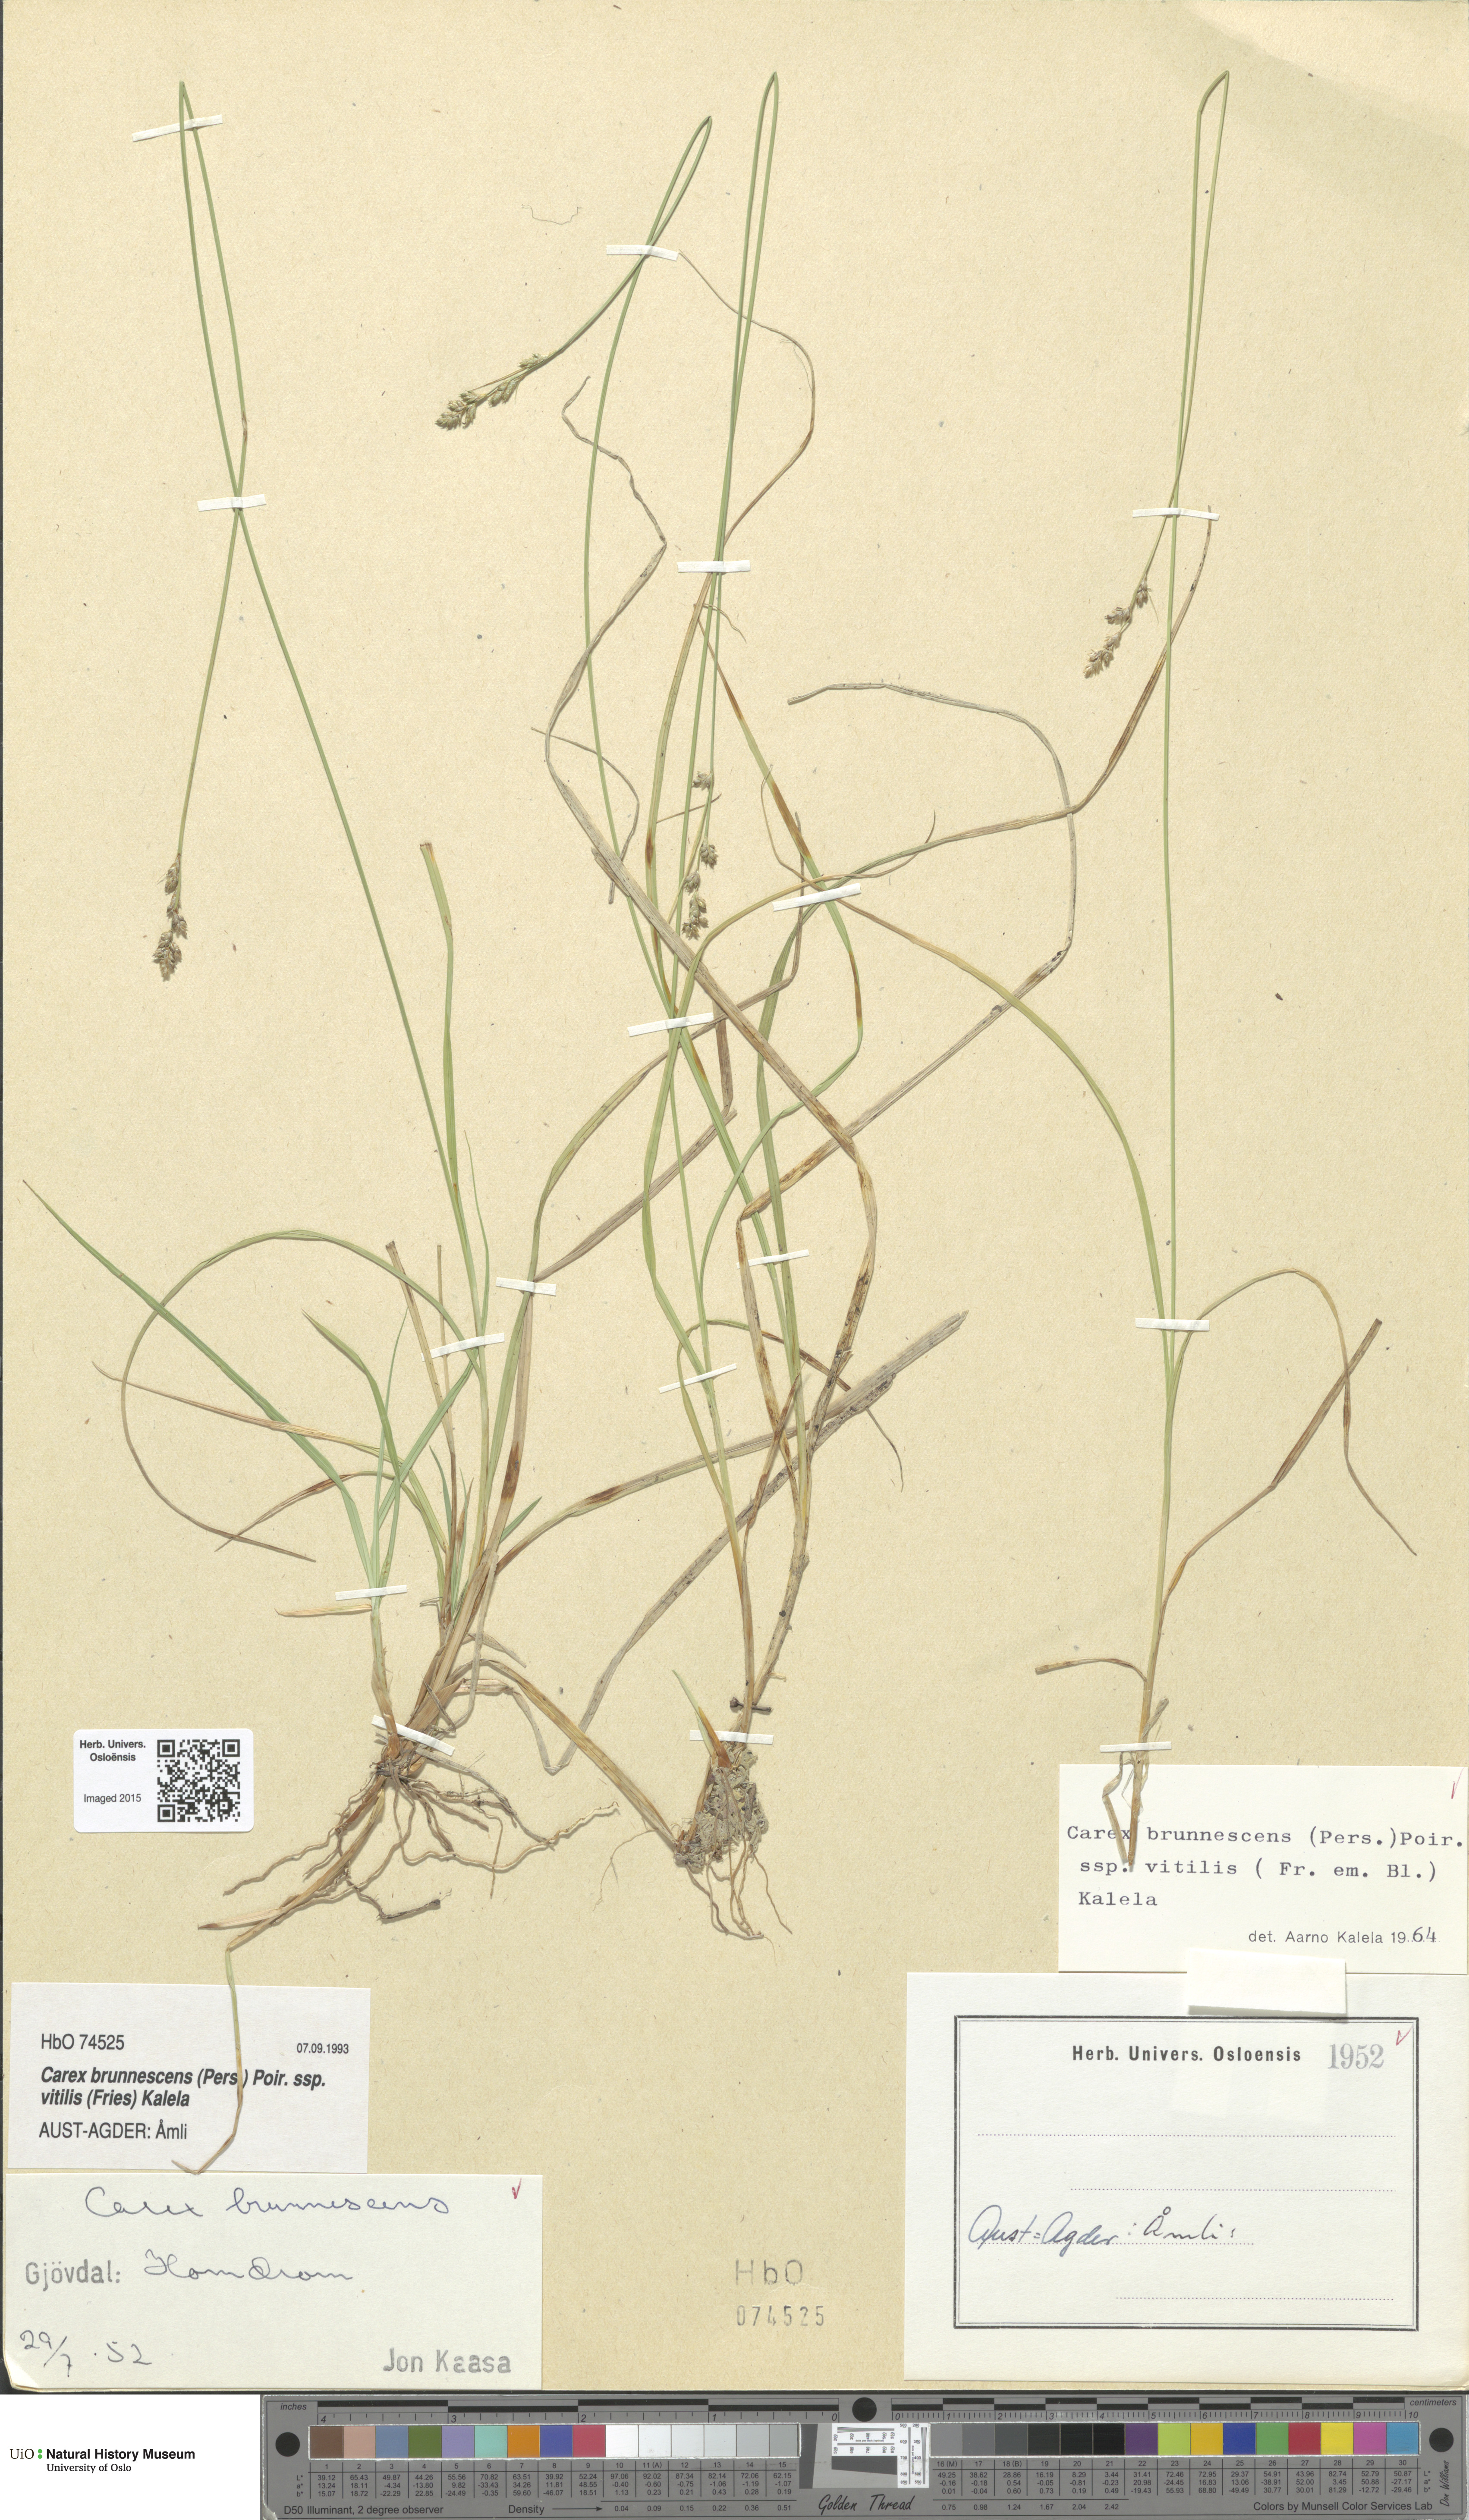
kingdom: Plantae
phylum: Tracheophyta
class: Liliopsida
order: Poales
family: Cyperaceae
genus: Carex
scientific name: Carex brunnescens
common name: Brown sedge
